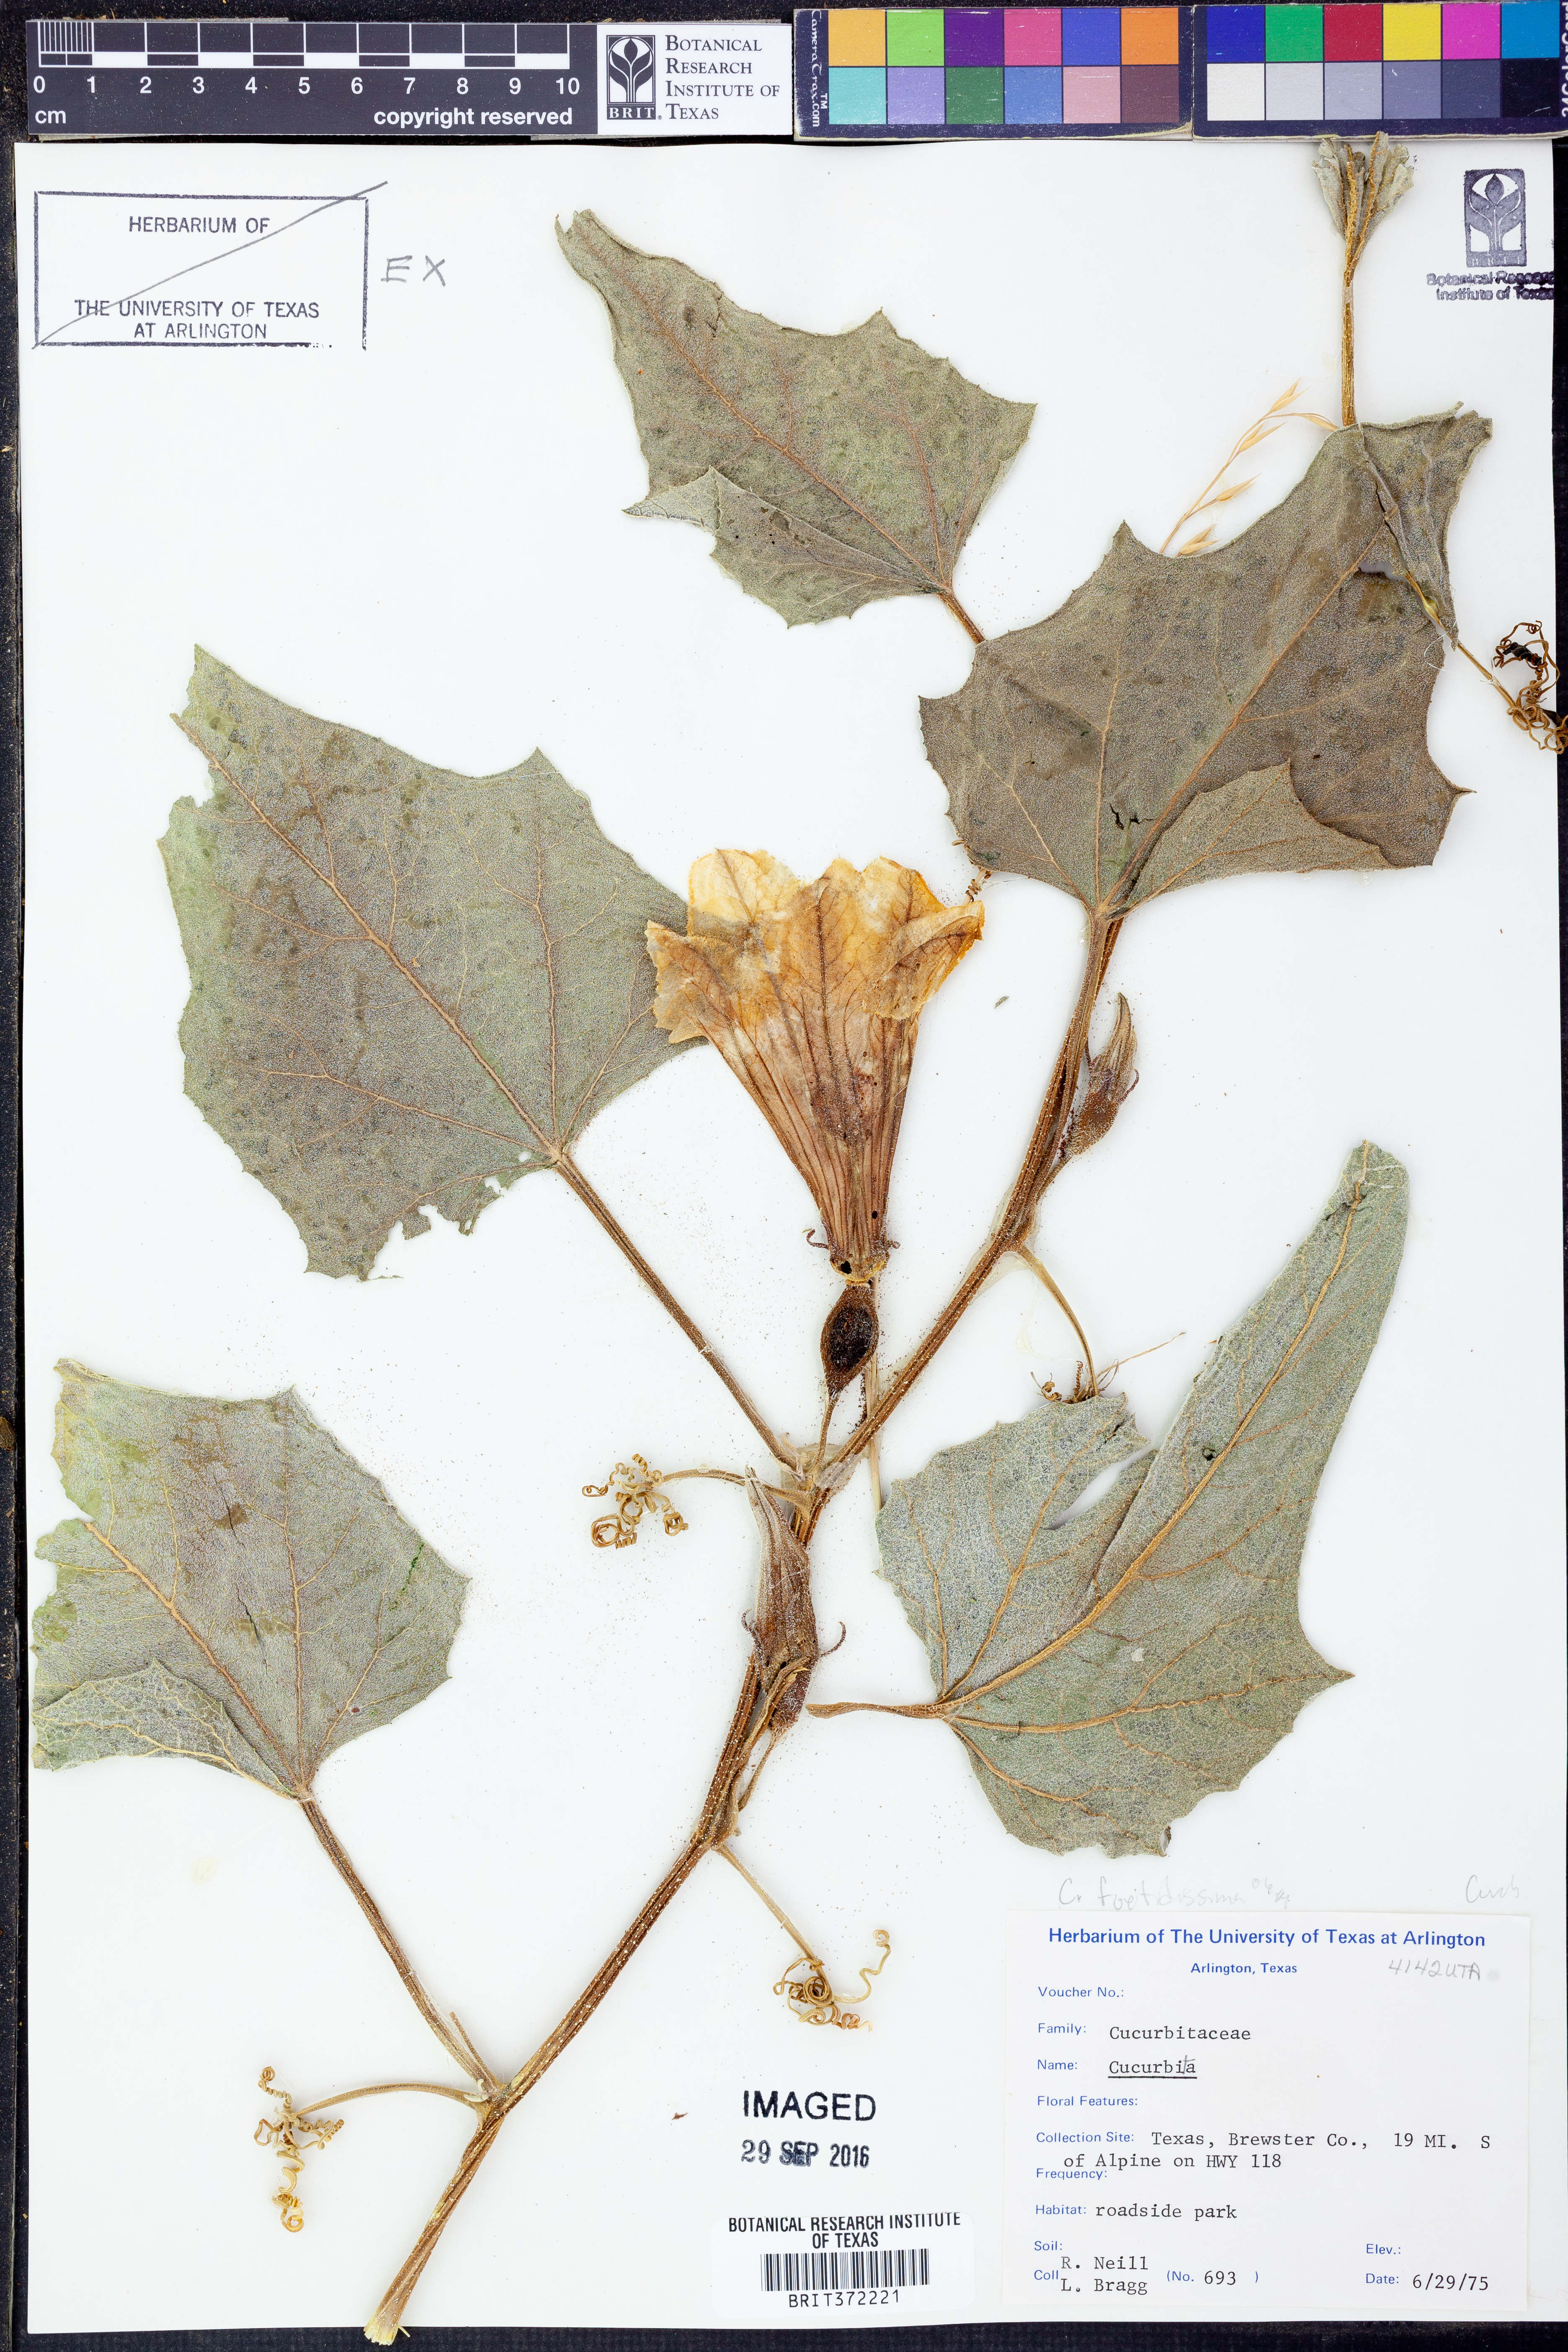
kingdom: Plantae
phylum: Tracheophyta
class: Magnoliopsida
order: Cucurbitales
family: Cucurbitaceae
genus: Cucurbita
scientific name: Cucurbita foetidissima
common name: Buffalo gourd
